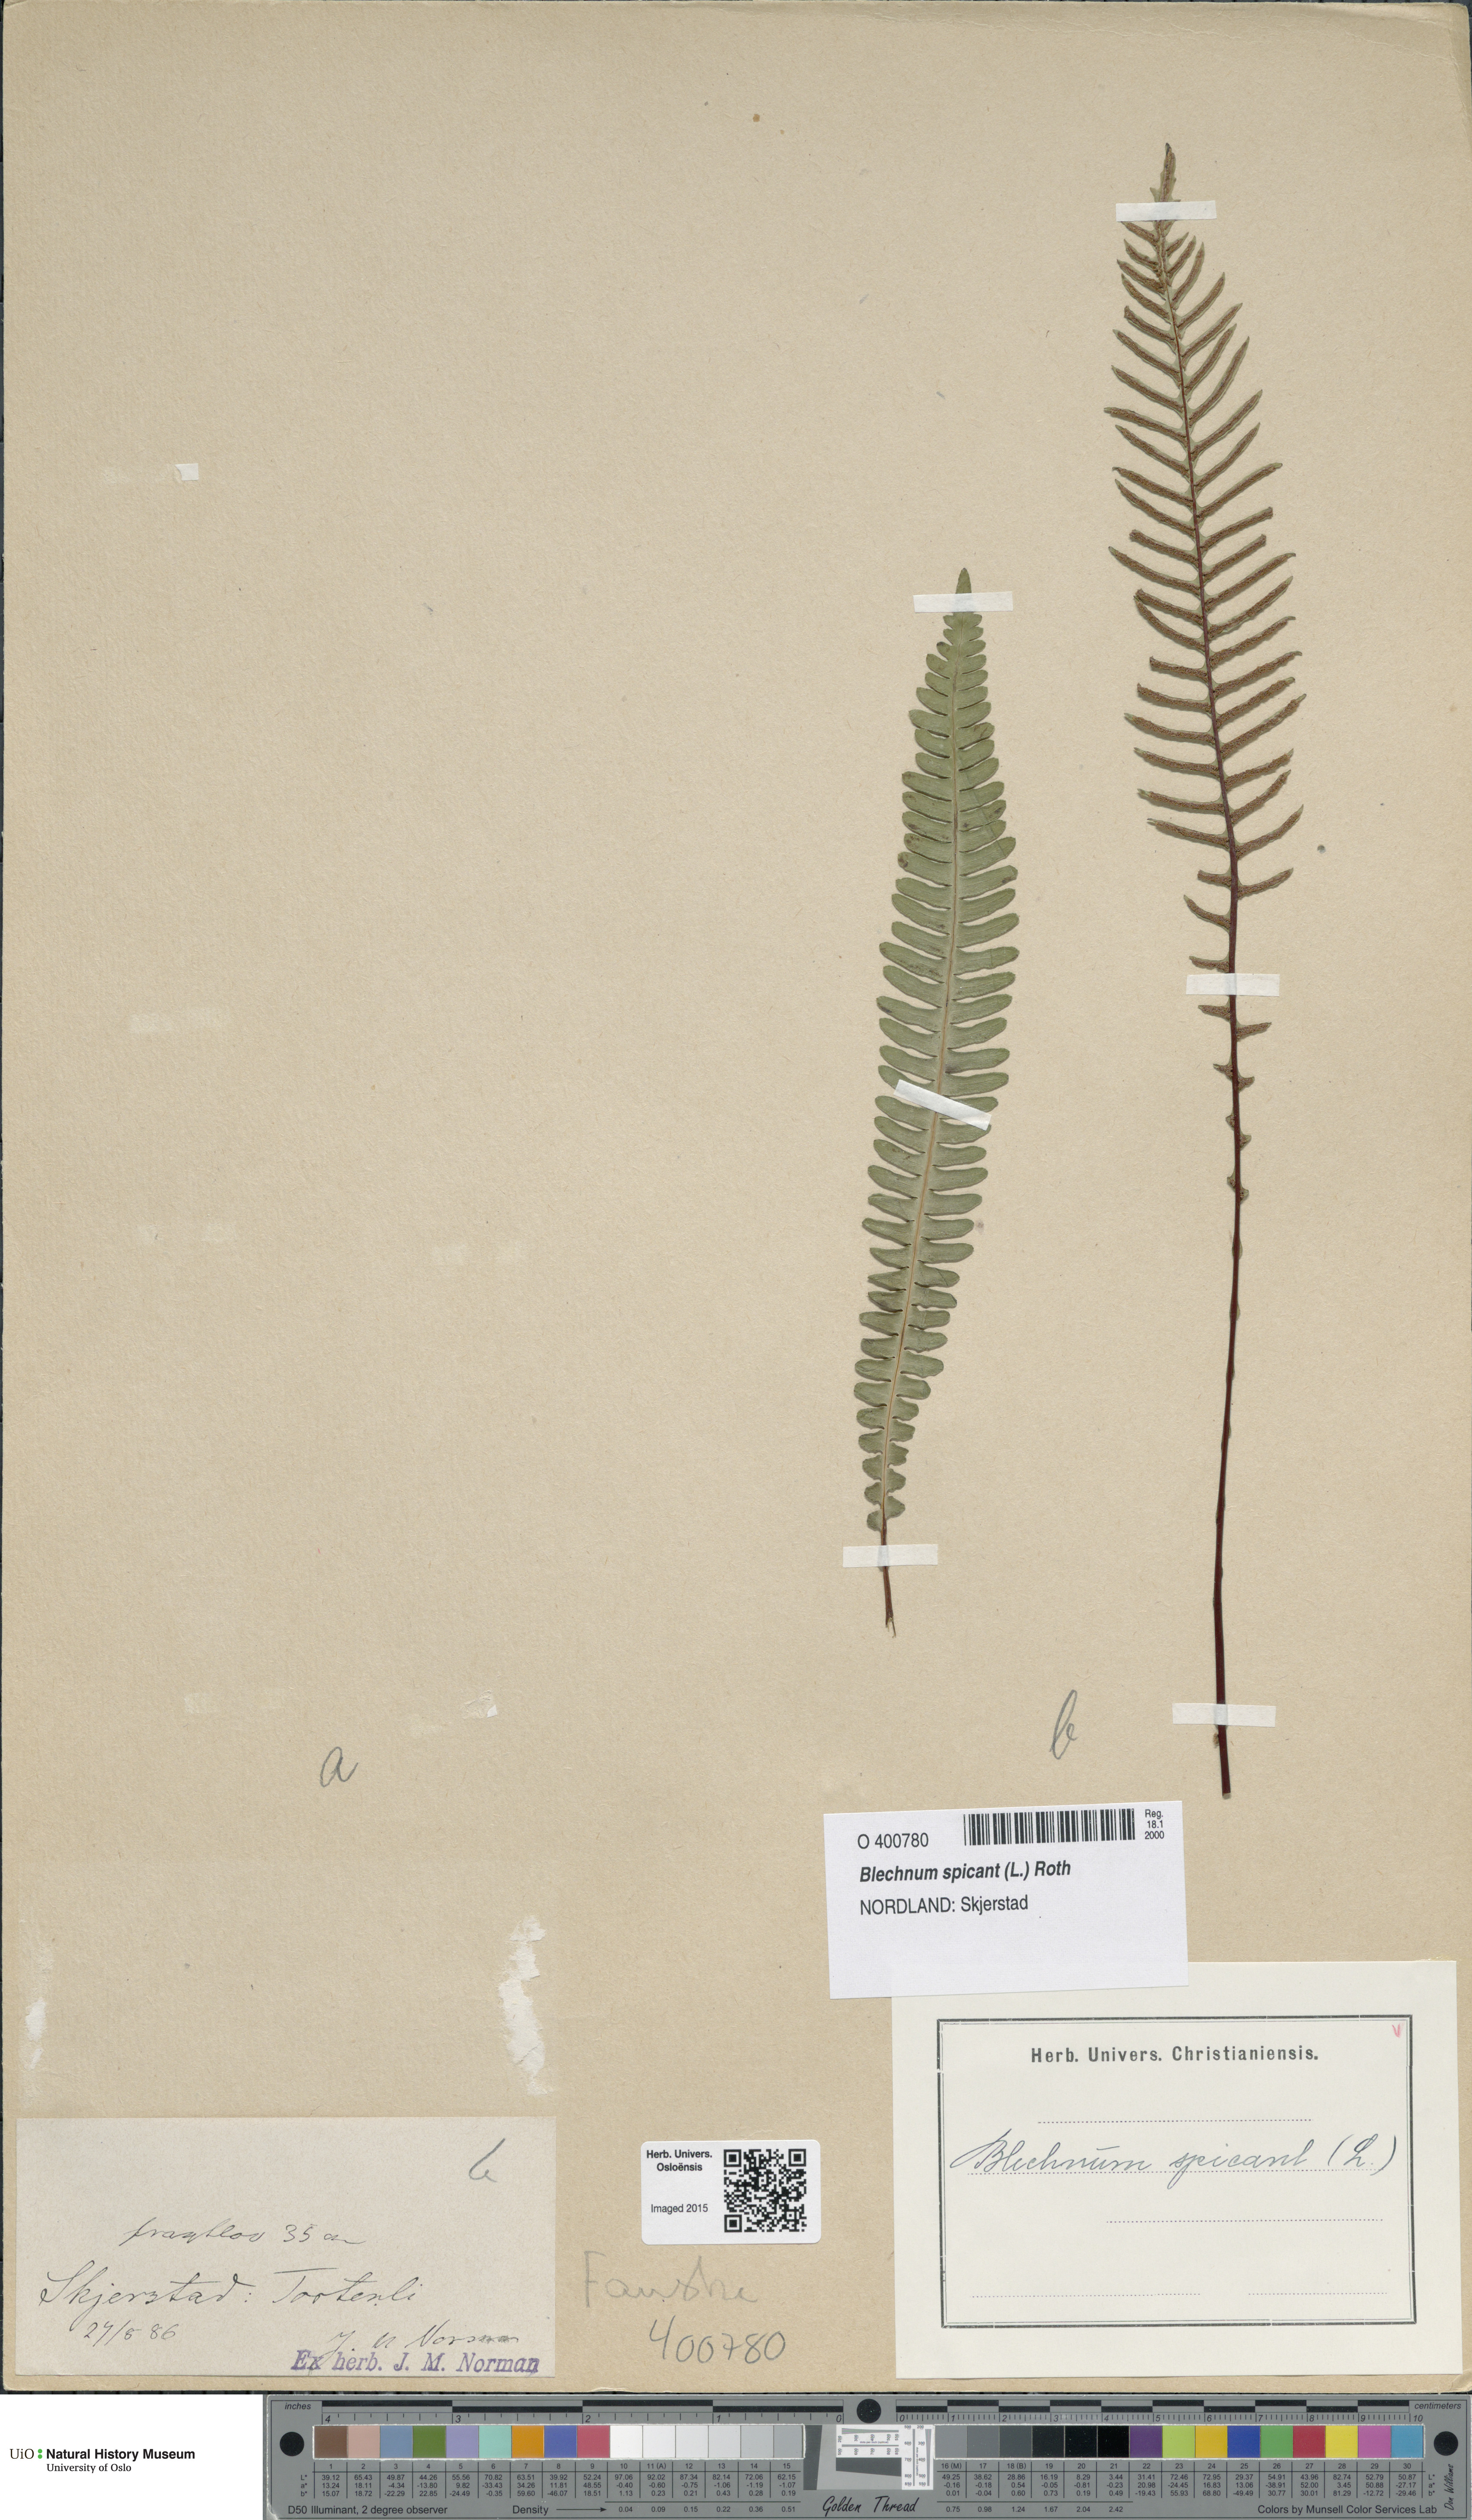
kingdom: Plantae
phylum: Tracheophyta
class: Polypodiopsida
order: Polypodiales
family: Blechnaceae
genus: Struthiopteris
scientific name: Struthiopteris spicant
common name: Deer fern
